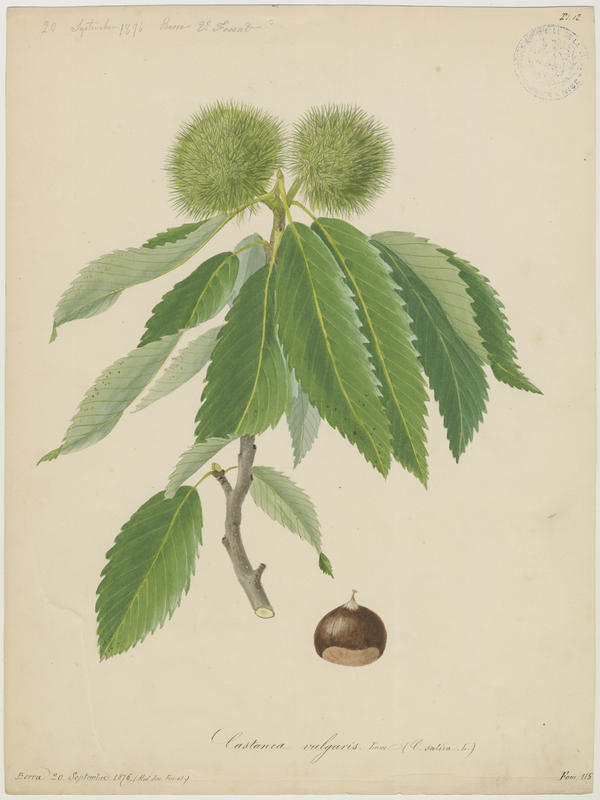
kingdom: Plantae
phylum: Tracheophyta
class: Magnoliopsida
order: Fagales
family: Fagaceae
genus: Castanea
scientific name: Castanea sativa
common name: Sweet chestnut
